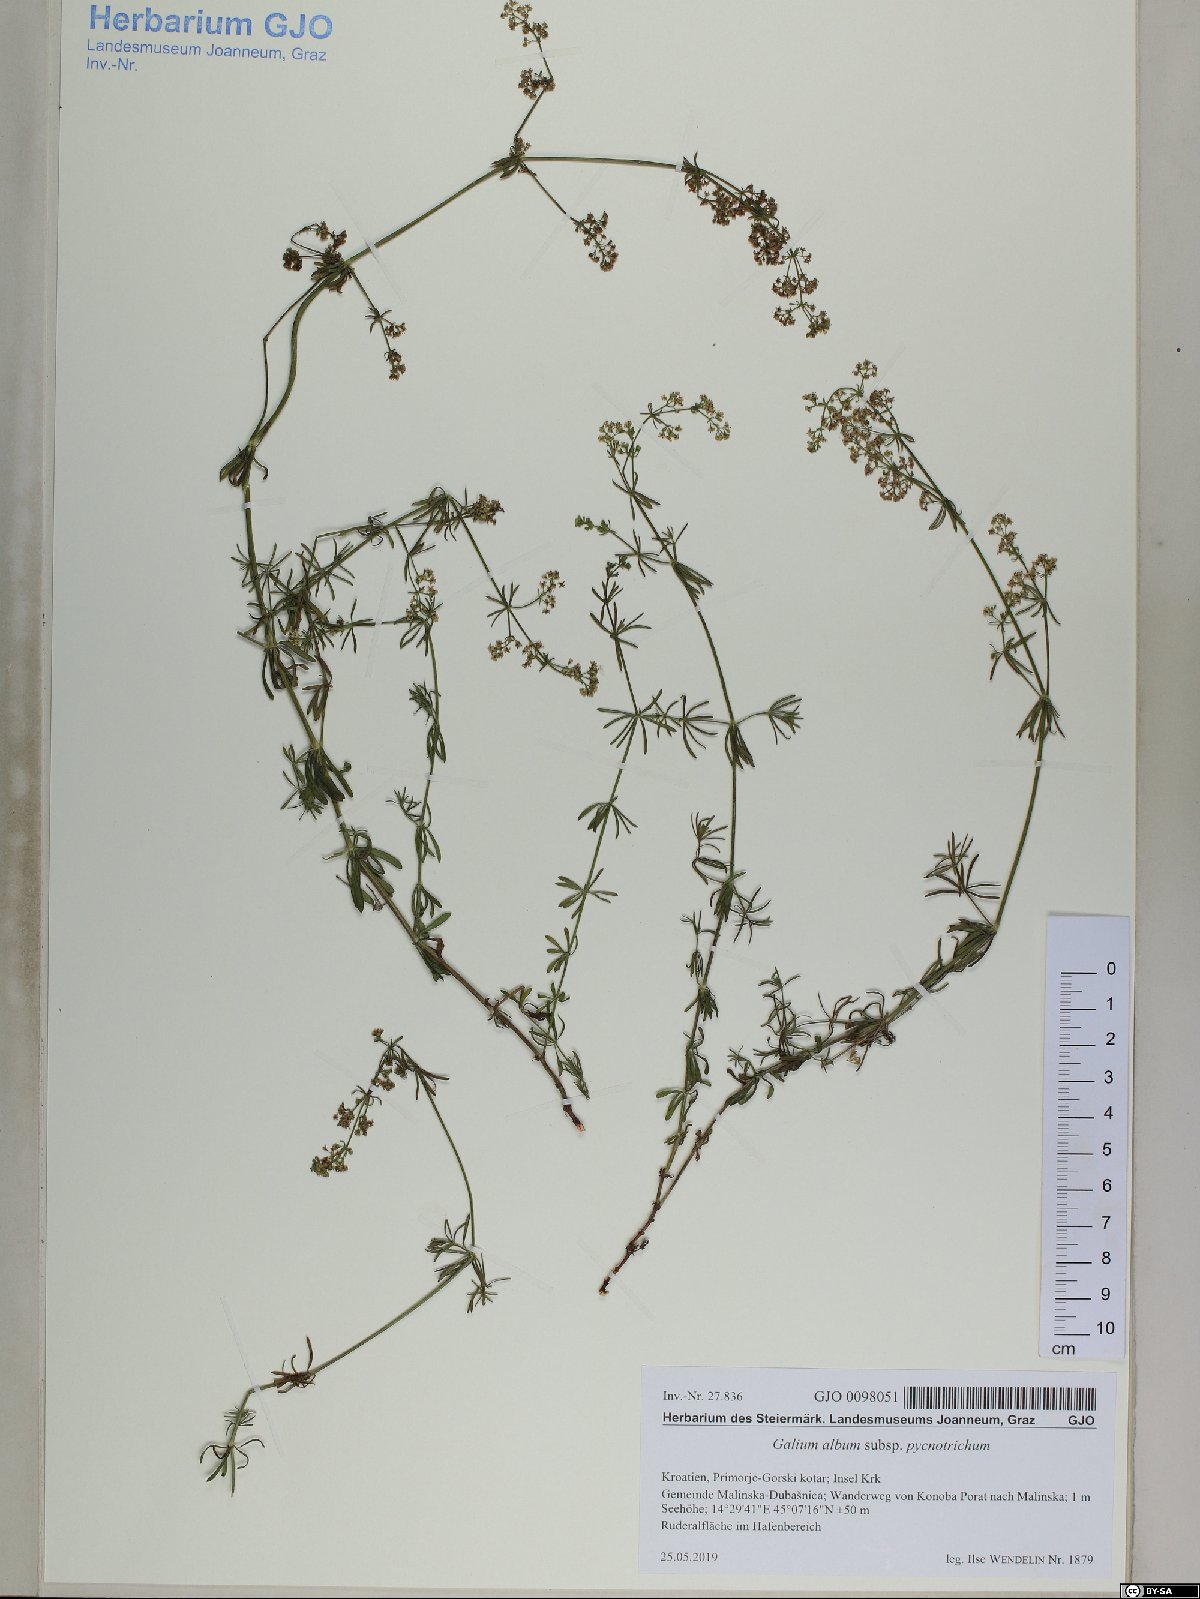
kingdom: Plantae
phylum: Tracheophyta
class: Magnoliopsida
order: Gentianales
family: Rubiaceae
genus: Galium
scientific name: Galium lucidum
